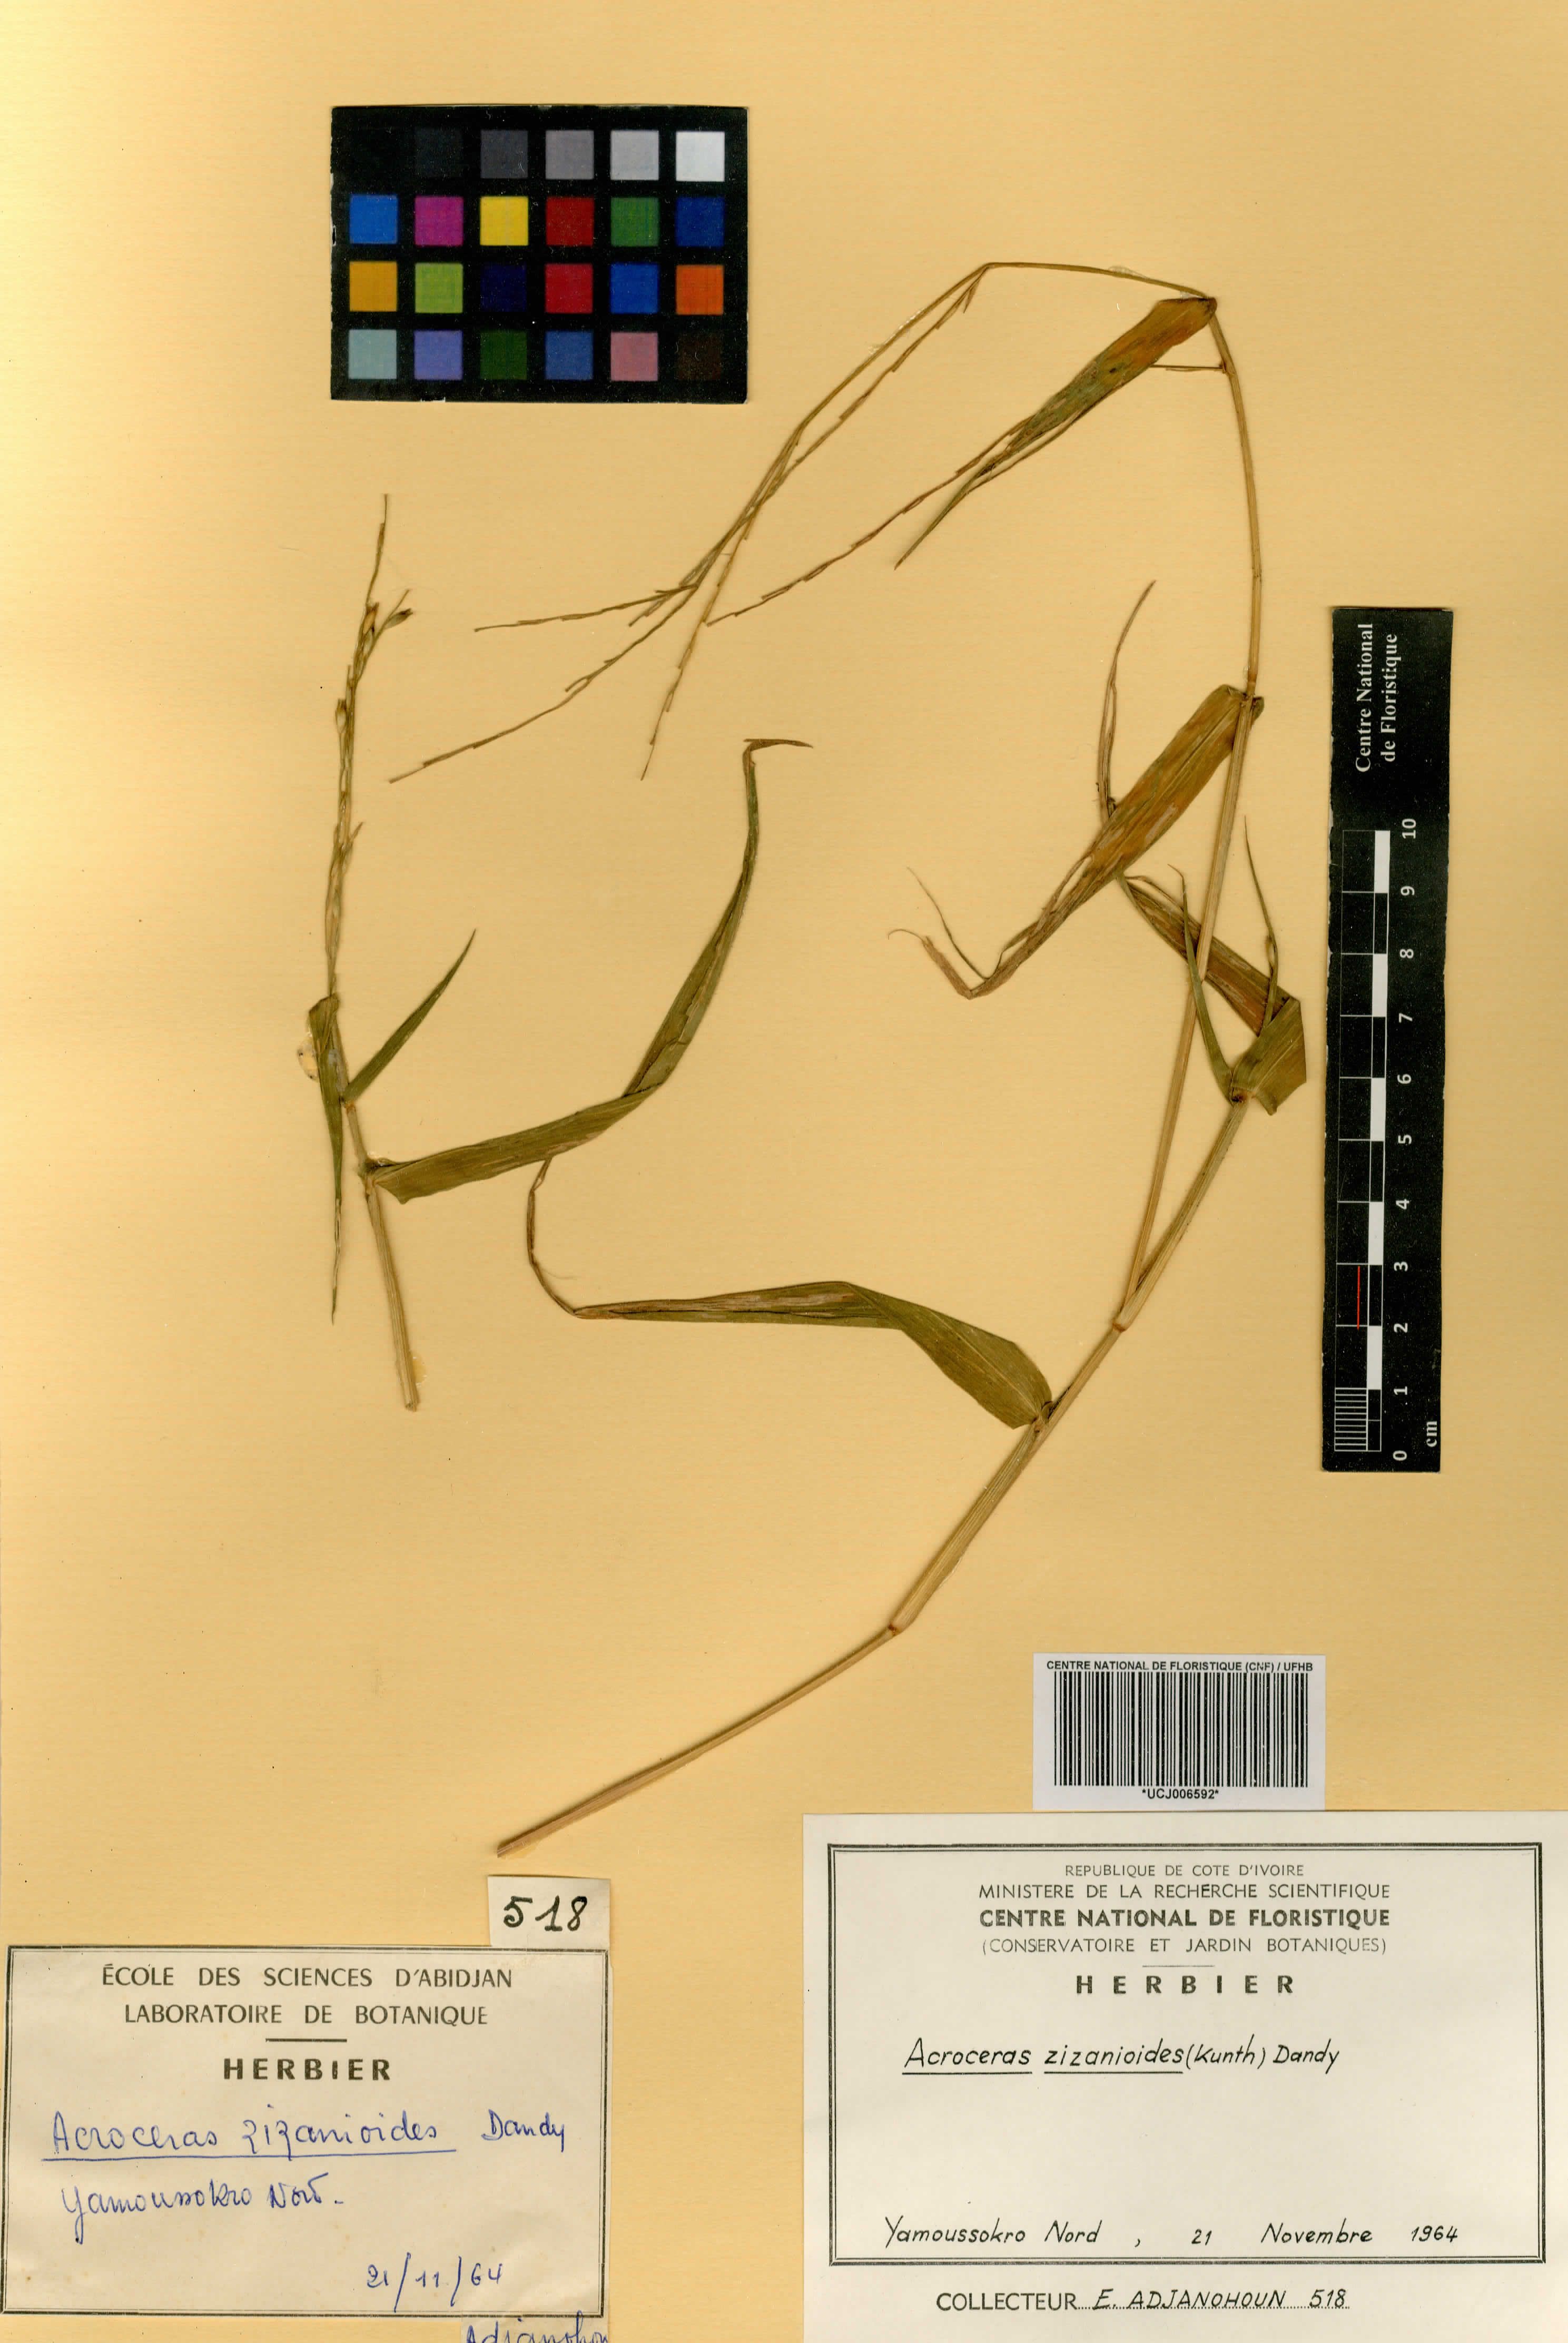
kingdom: Plantae
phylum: Tracheophyta
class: Liliopsida
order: Poales
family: Poaceae
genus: Acroceras
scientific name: Acroceras zizanioides
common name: Oat grass
